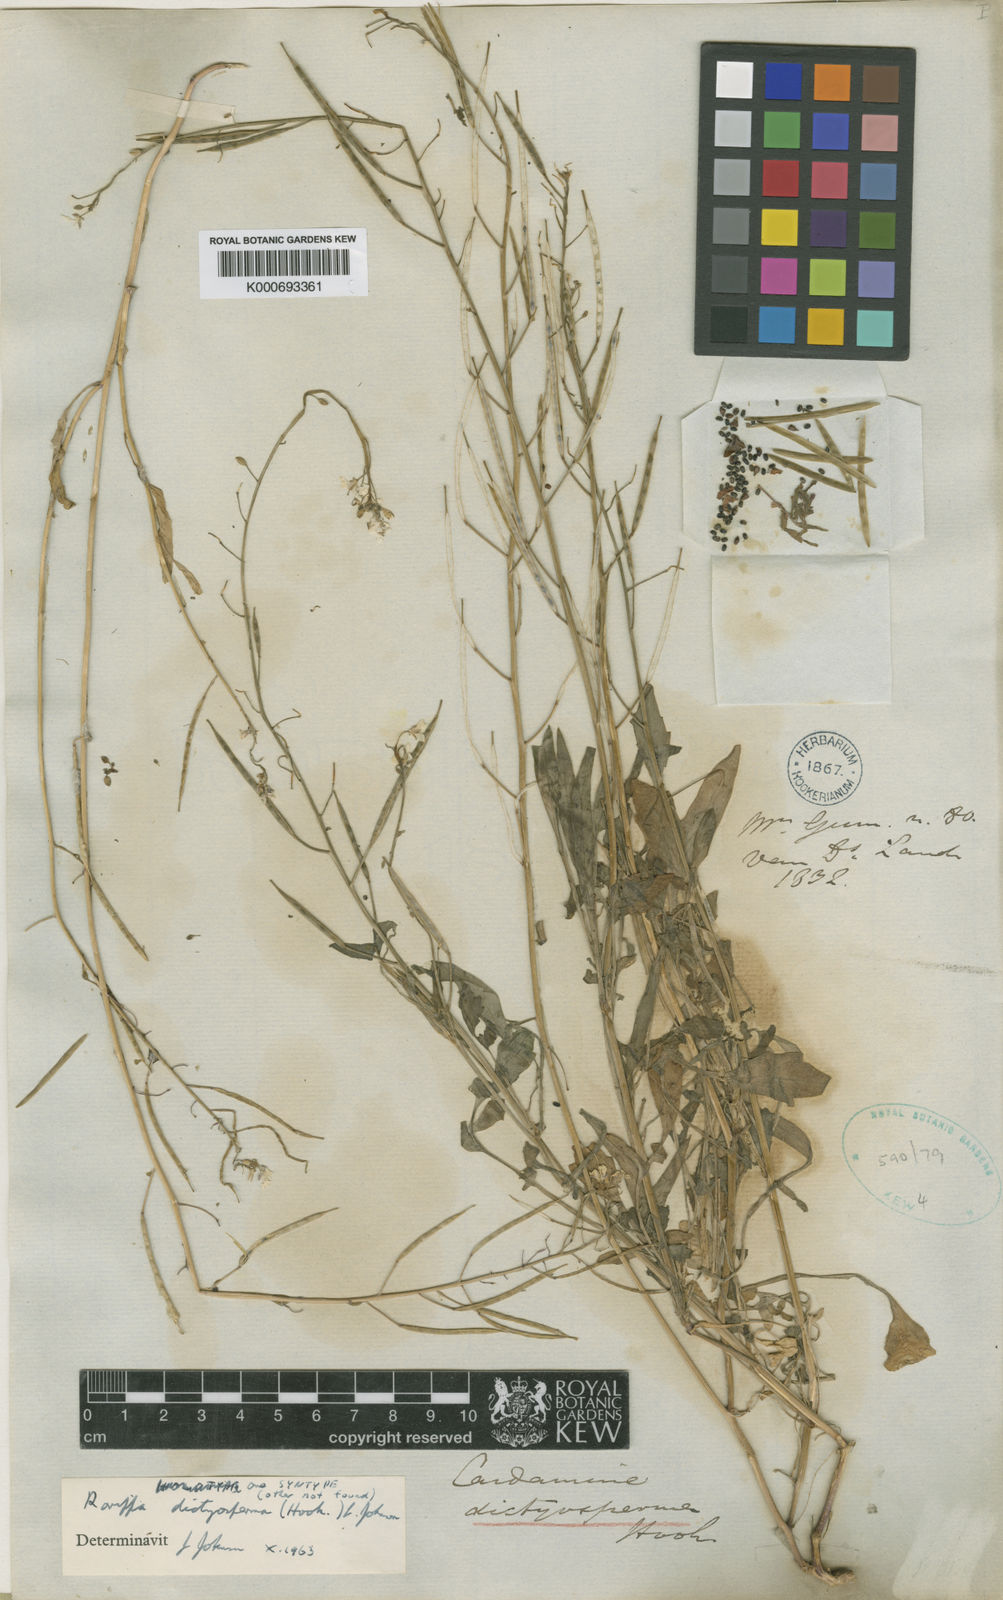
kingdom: Plantae
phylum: Tracheophyta
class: Magnoliopsida
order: Brassicales
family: Brassicaceae
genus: Rorippa
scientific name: Rorippa dictyosperma
